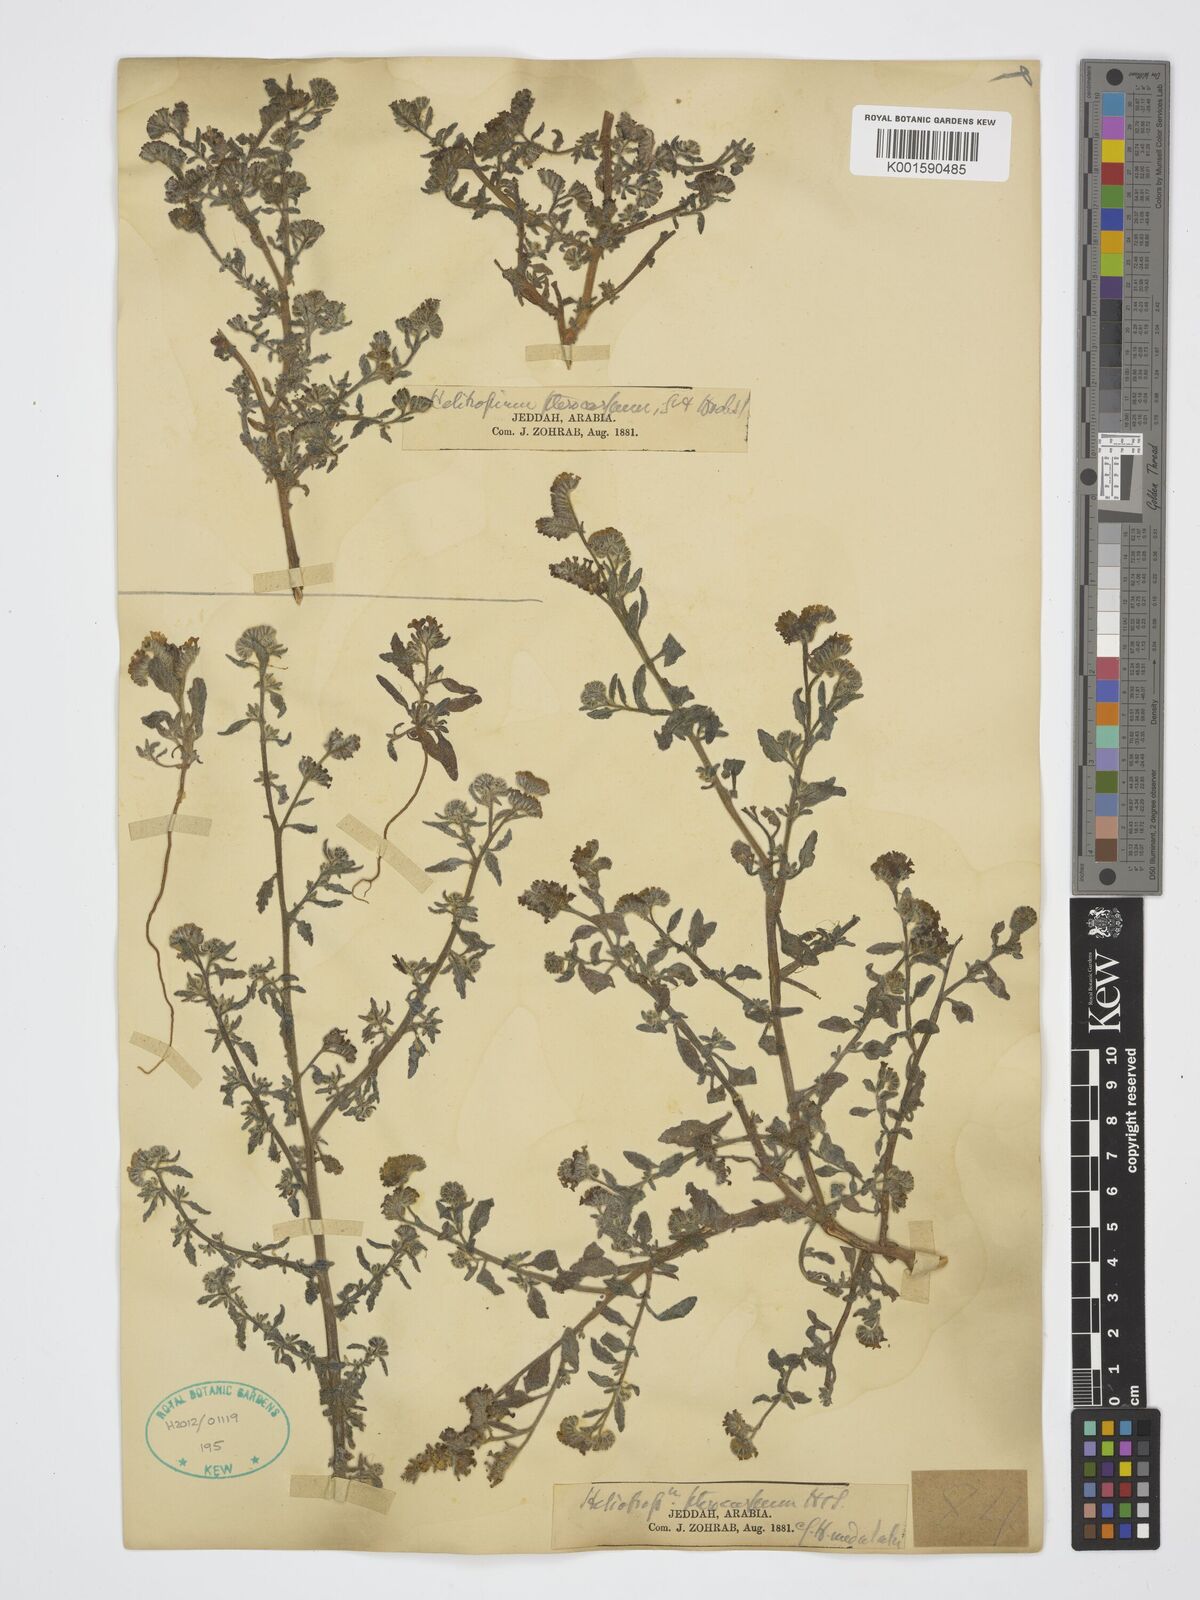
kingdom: Plantae
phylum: Tracheophyta
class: Magnoliopsida
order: Boraginales
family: Heliotropiaceae
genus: Heliotropium
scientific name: Heliotropium
